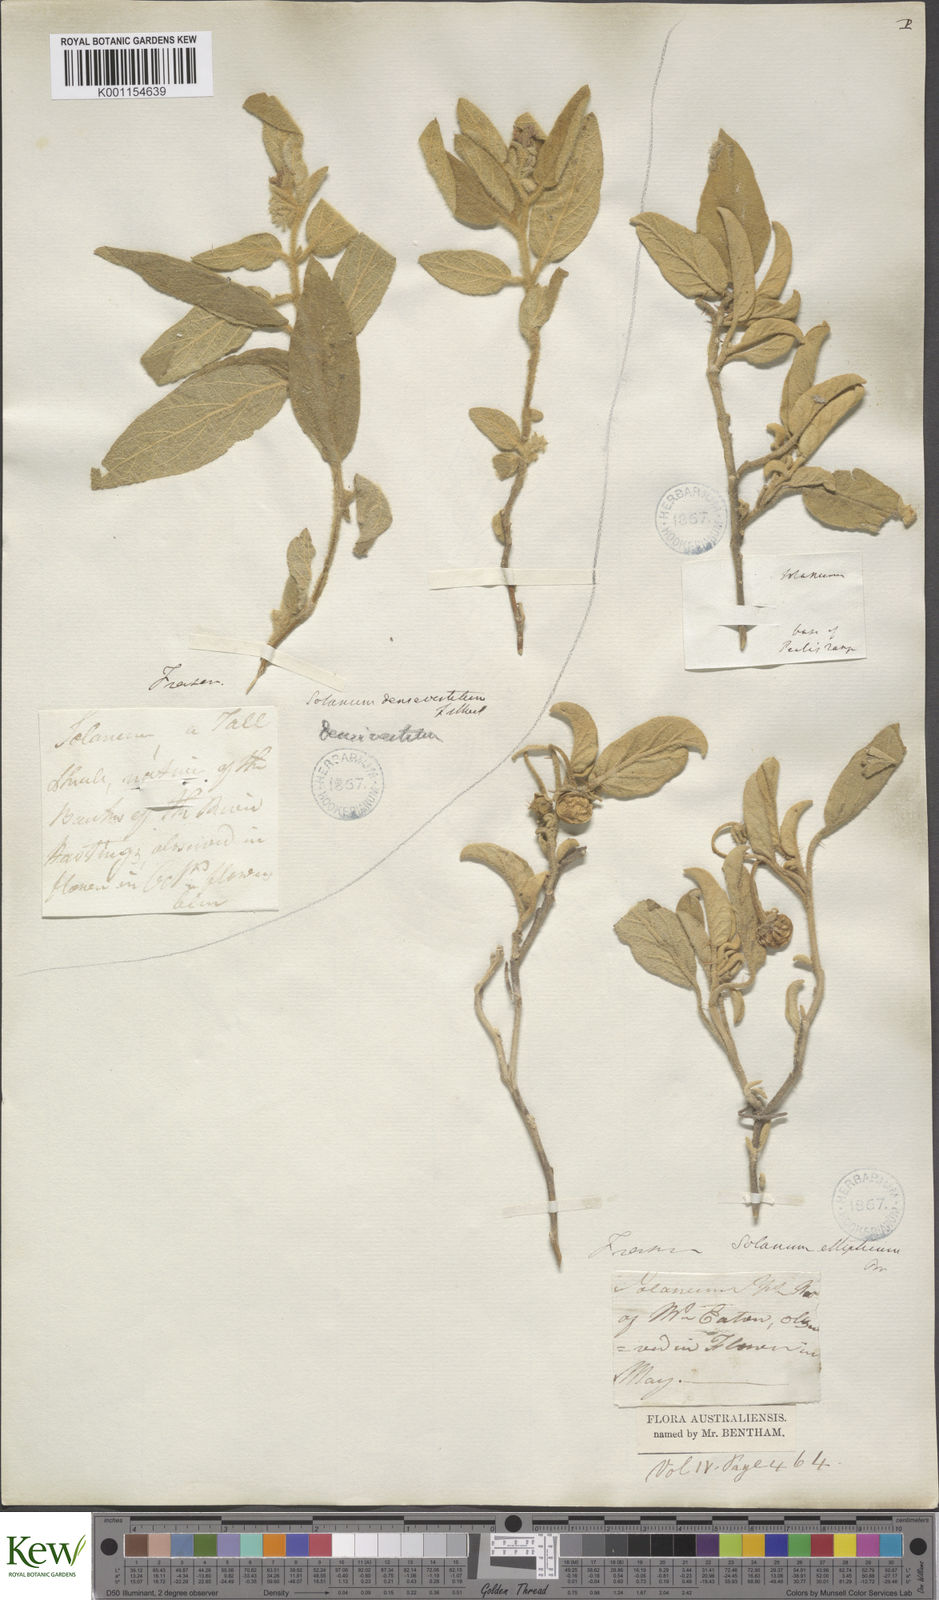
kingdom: Plantae
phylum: Tracheophyta
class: Magnoliopsida
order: Solanales
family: Solanaceae
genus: Solanum
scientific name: Solanum ellipticum
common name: Potato-bush
